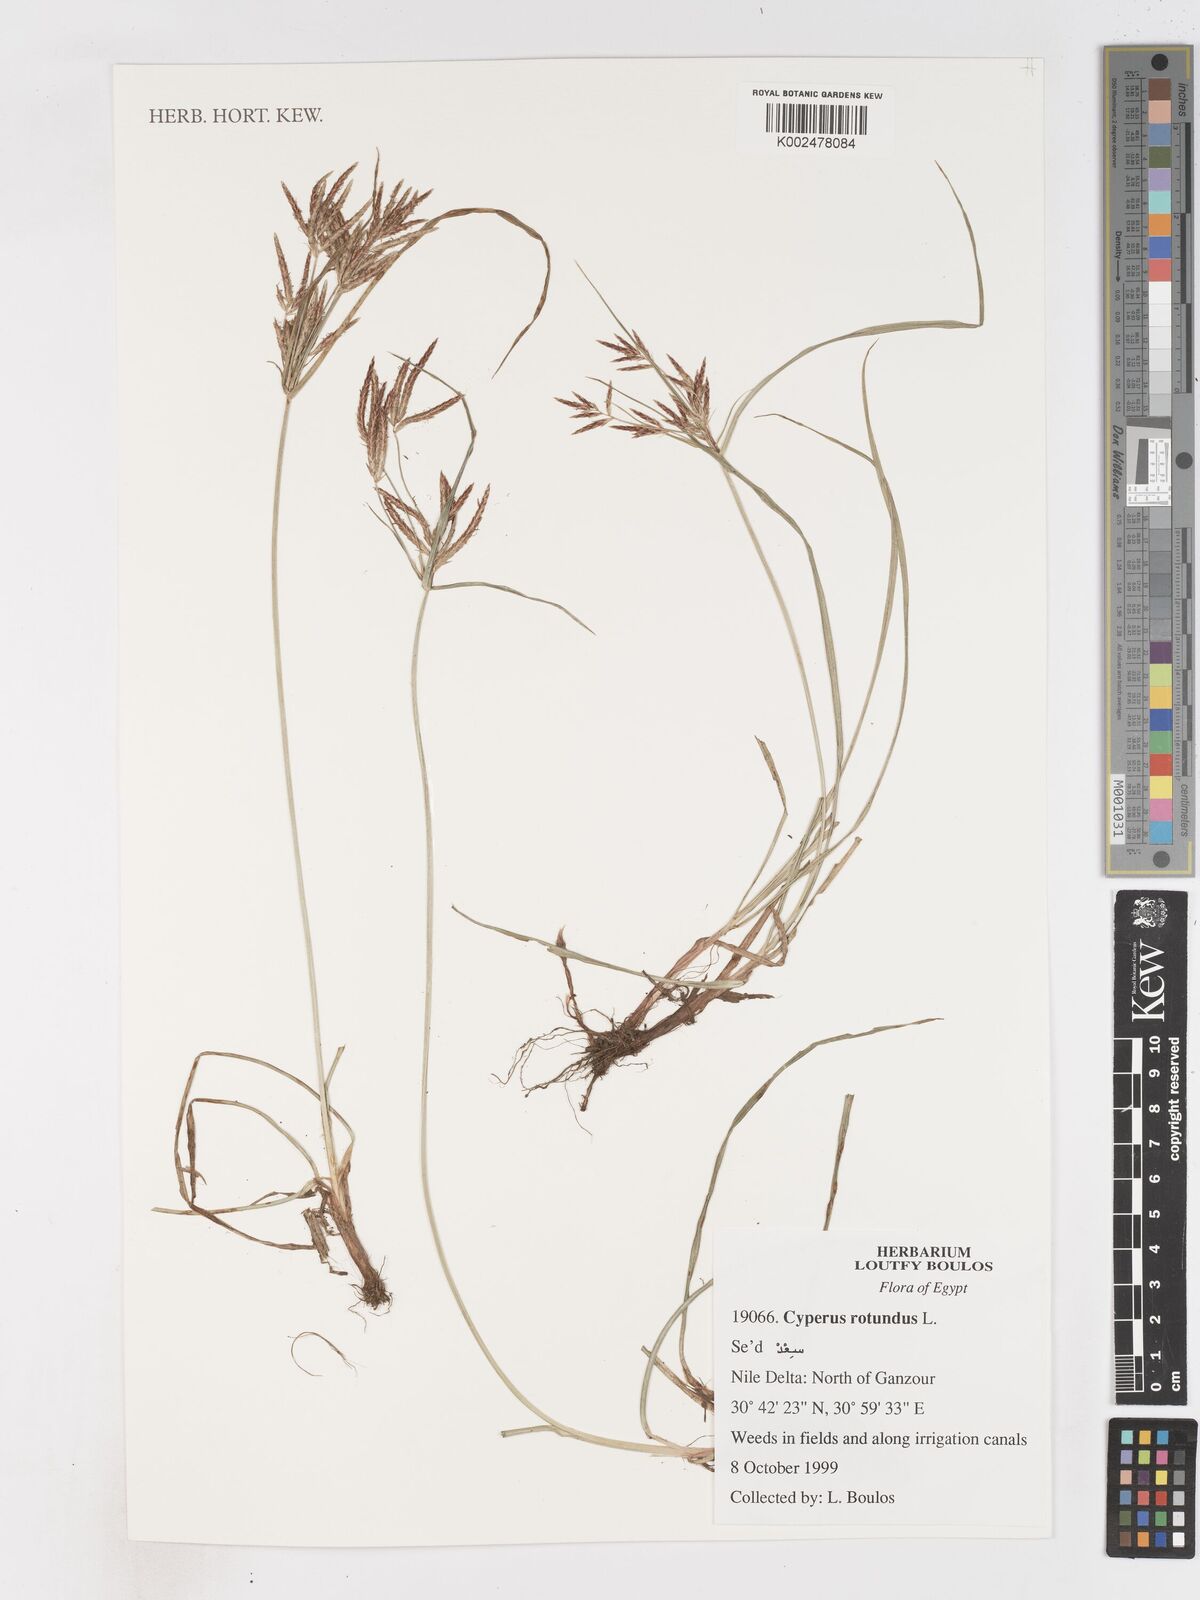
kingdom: Plantae
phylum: Tracheophyta
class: Liliopsida
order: Poales
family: Cyperaceae
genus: Cyperus
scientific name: Cyperus rotundus
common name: Nutgrass
